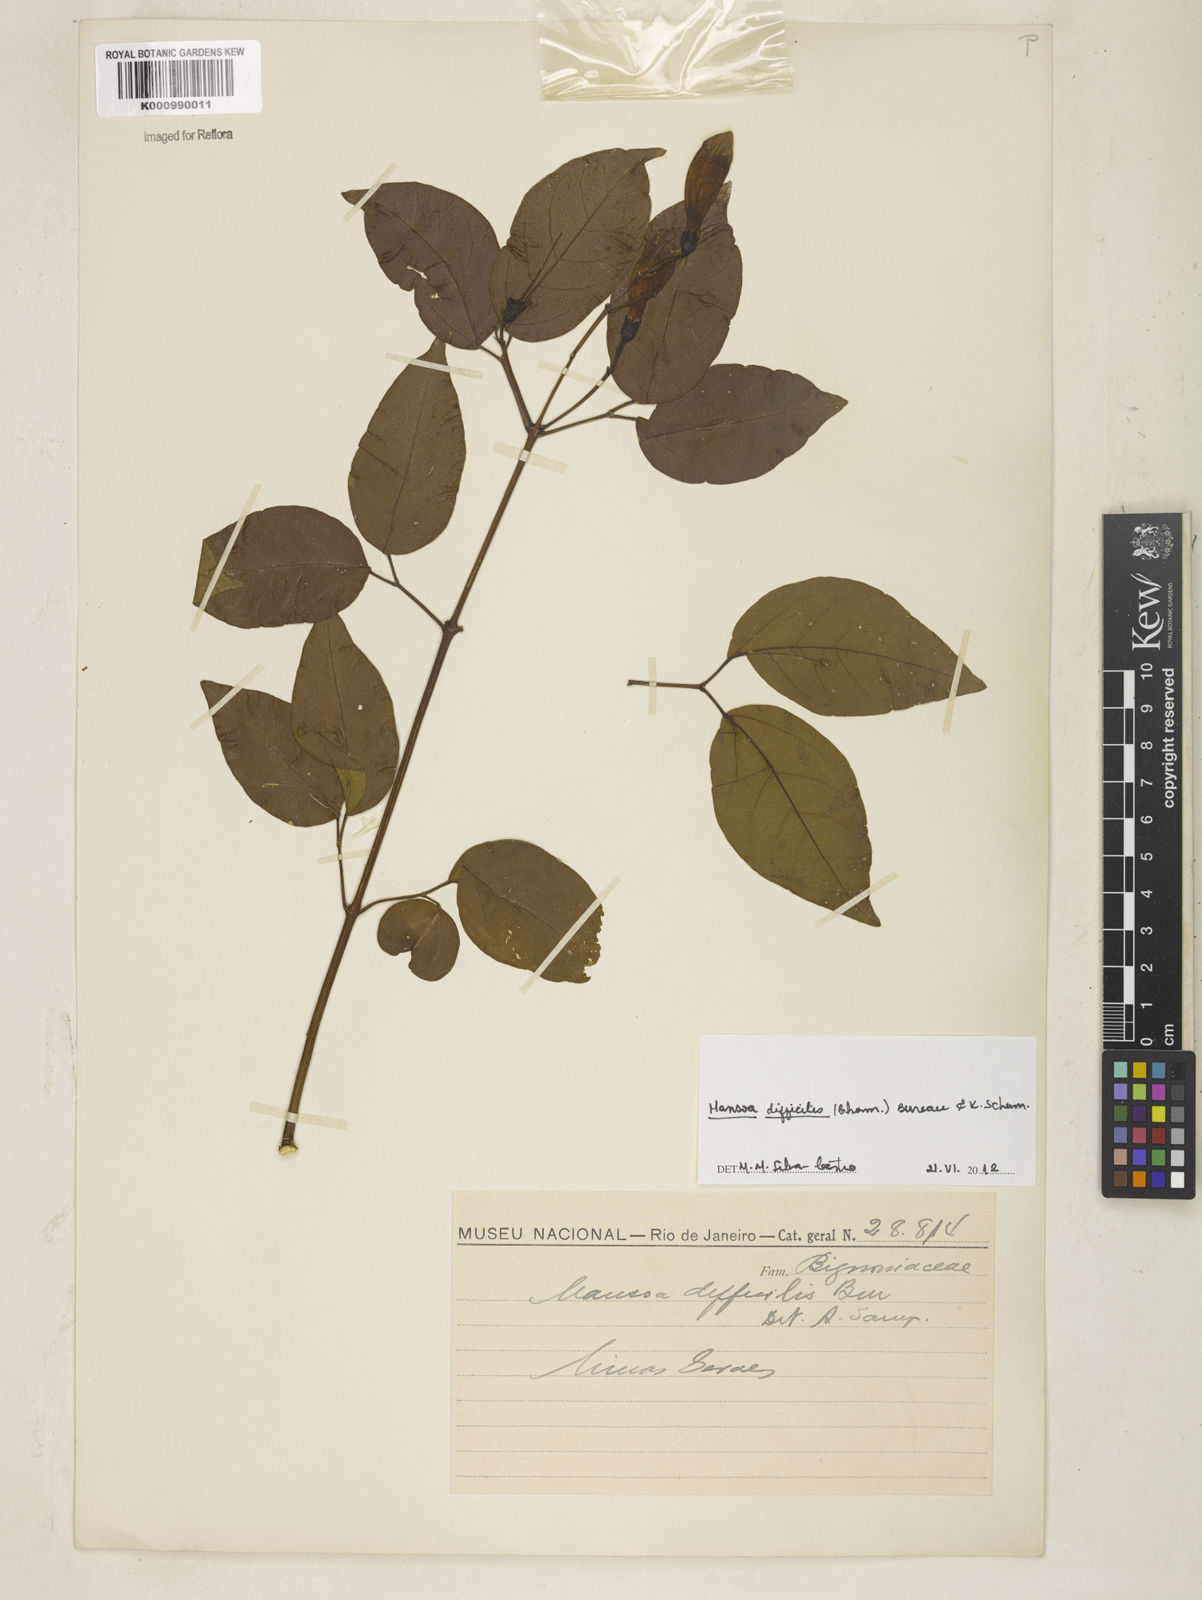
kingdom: Plantae
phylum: Tracheophyta
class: Magnoliopsida
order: Lamiales
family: Bignoniaceae
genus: Mansoa
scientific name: Mansoa difficilis
